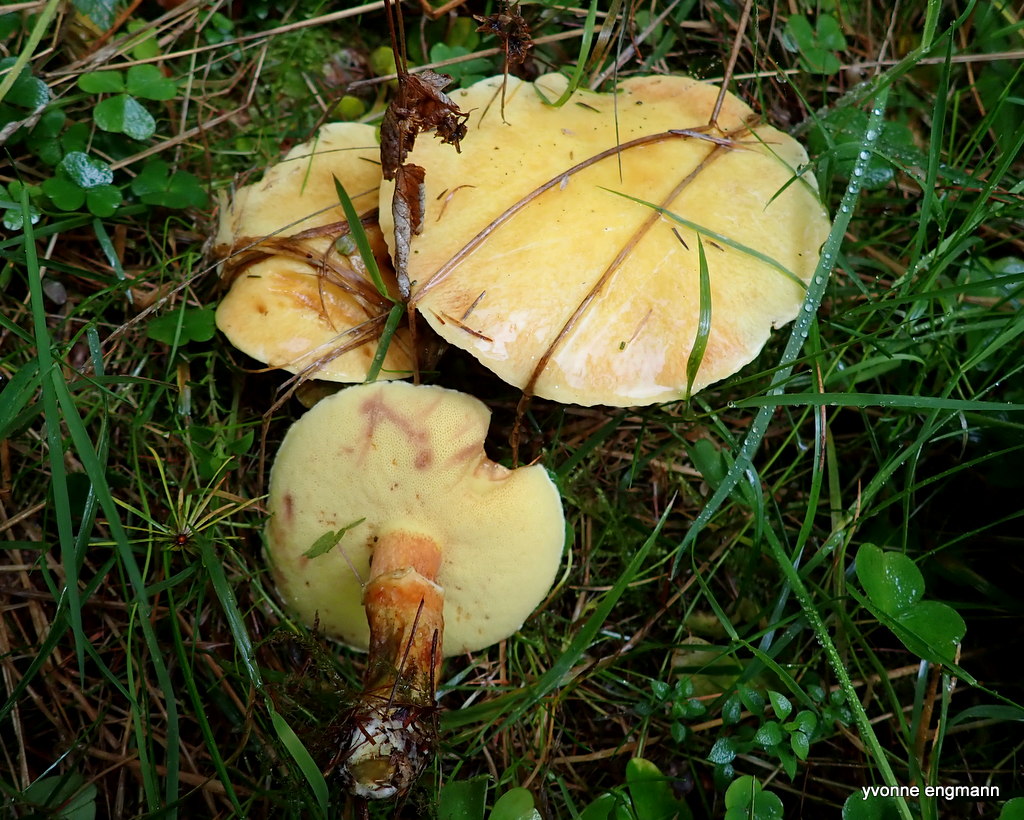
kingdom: Fungi
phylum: Basidiomycota
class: Agaricomycetes
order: Boletales
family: Suillaceae
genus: Suillus
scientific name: Suillus grevillei
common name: lærke-slimrørhat
